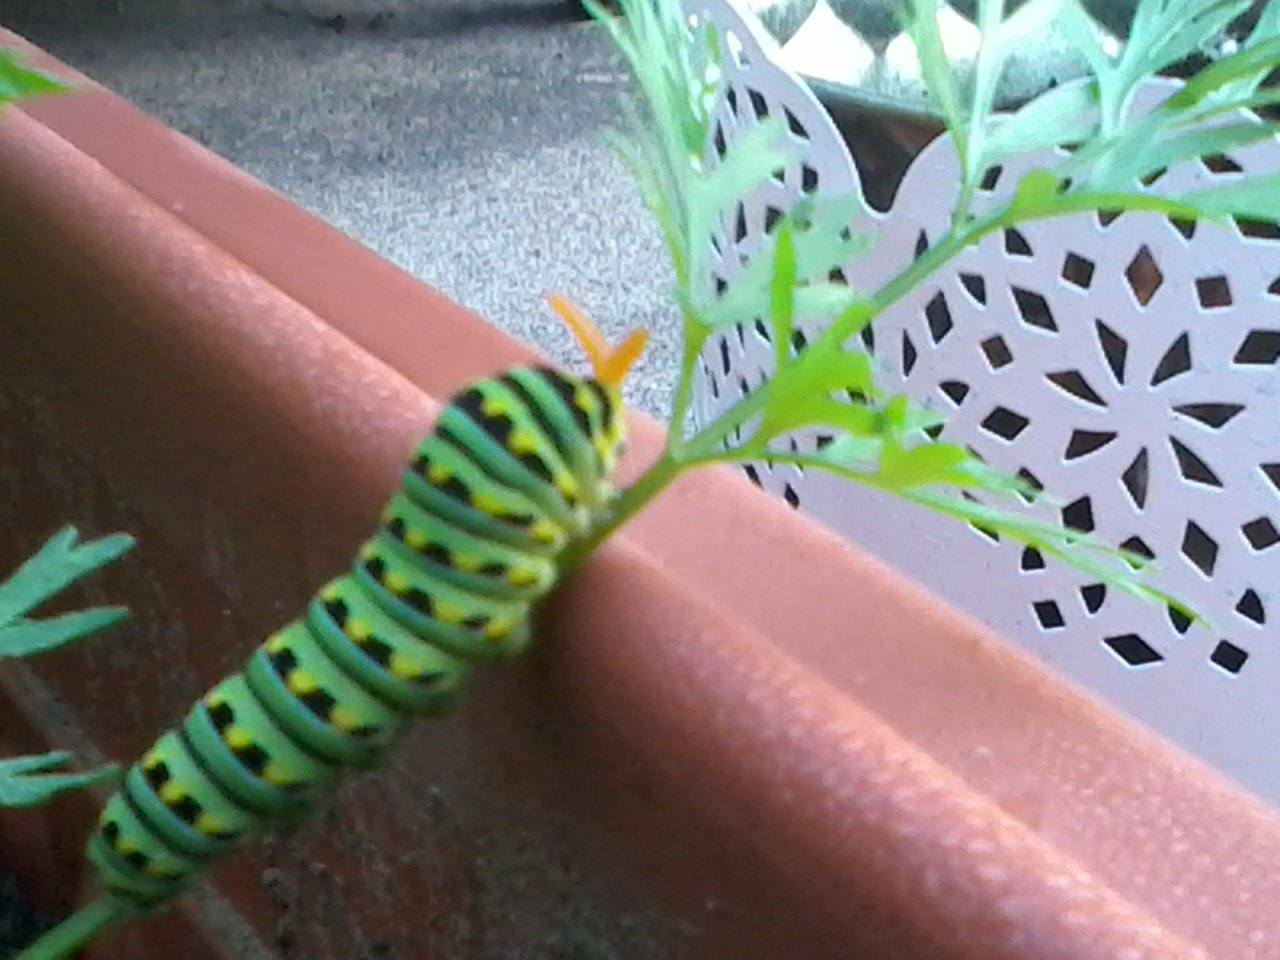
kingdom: Animalia
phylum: Arthropoda
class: Insecta
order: Lepidoptera
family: Papilionidae
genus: Papilio
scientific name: Papilio polyxenes
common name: Black Swallowtail
